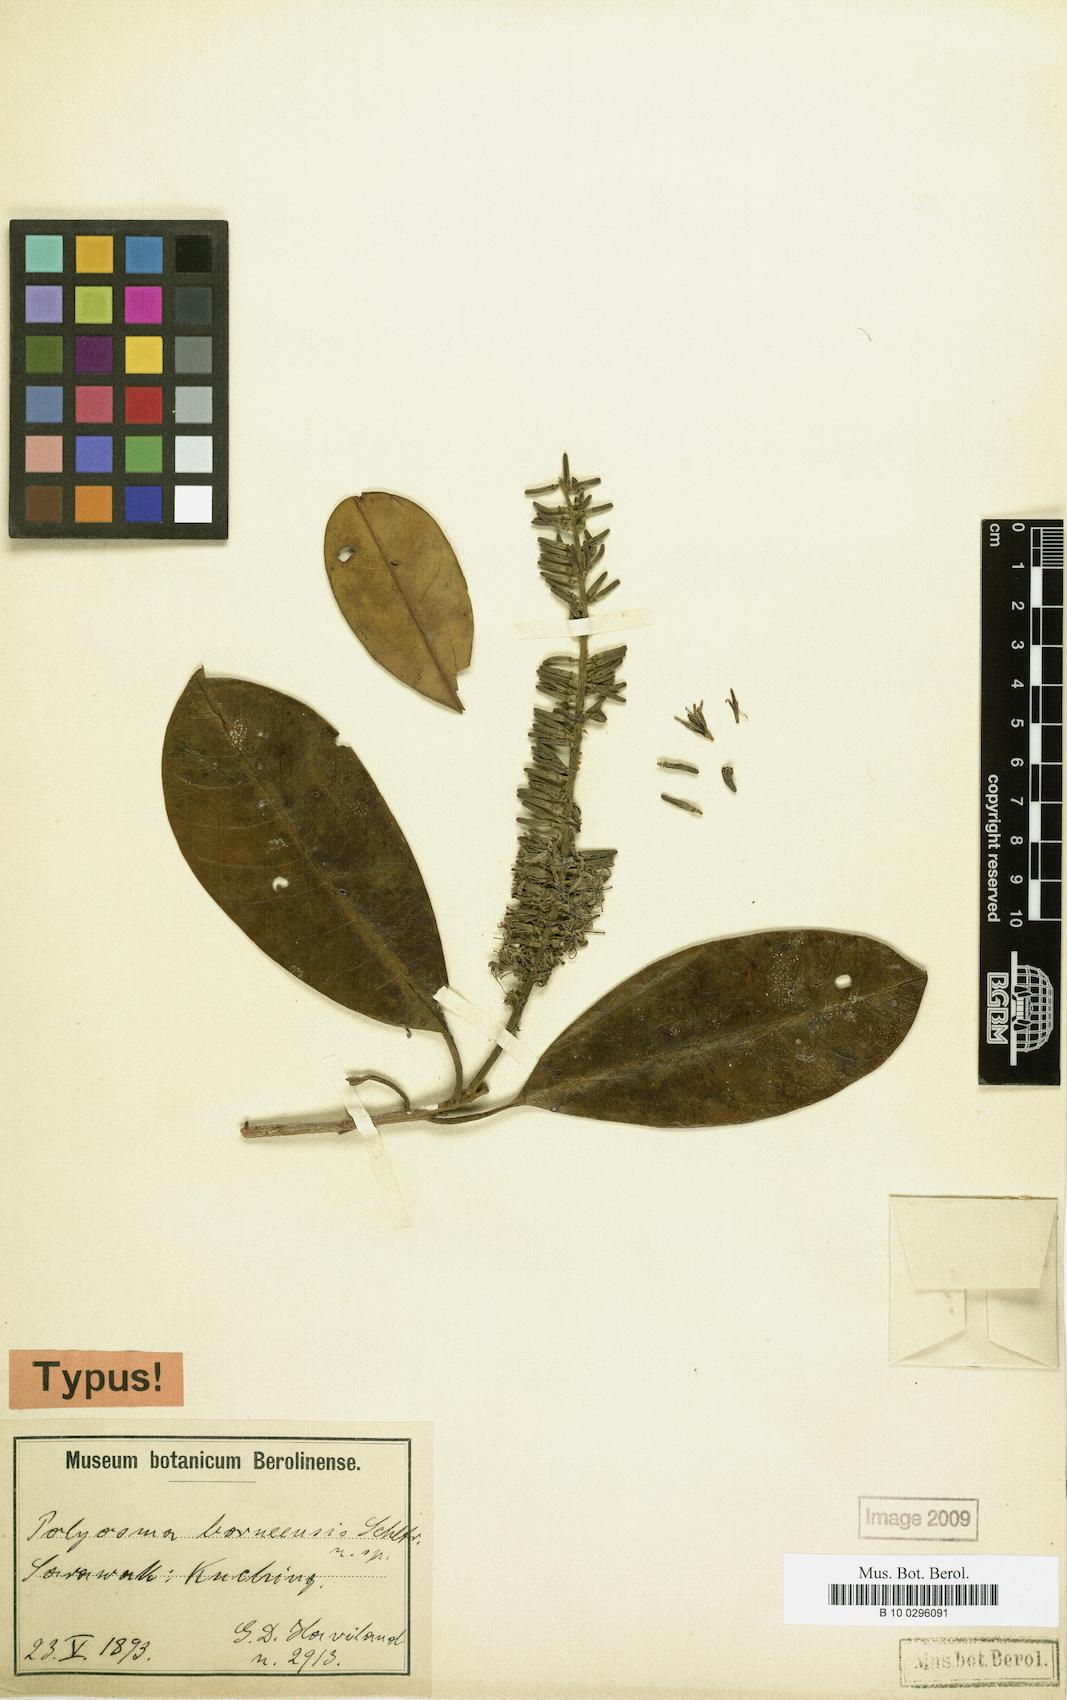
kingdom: Plantae
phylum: Tracheophyta
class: Magnoliopsida
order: Escalloniales
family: Escalloniaceae
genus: Polyosma
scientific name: Polyosma borneensis
